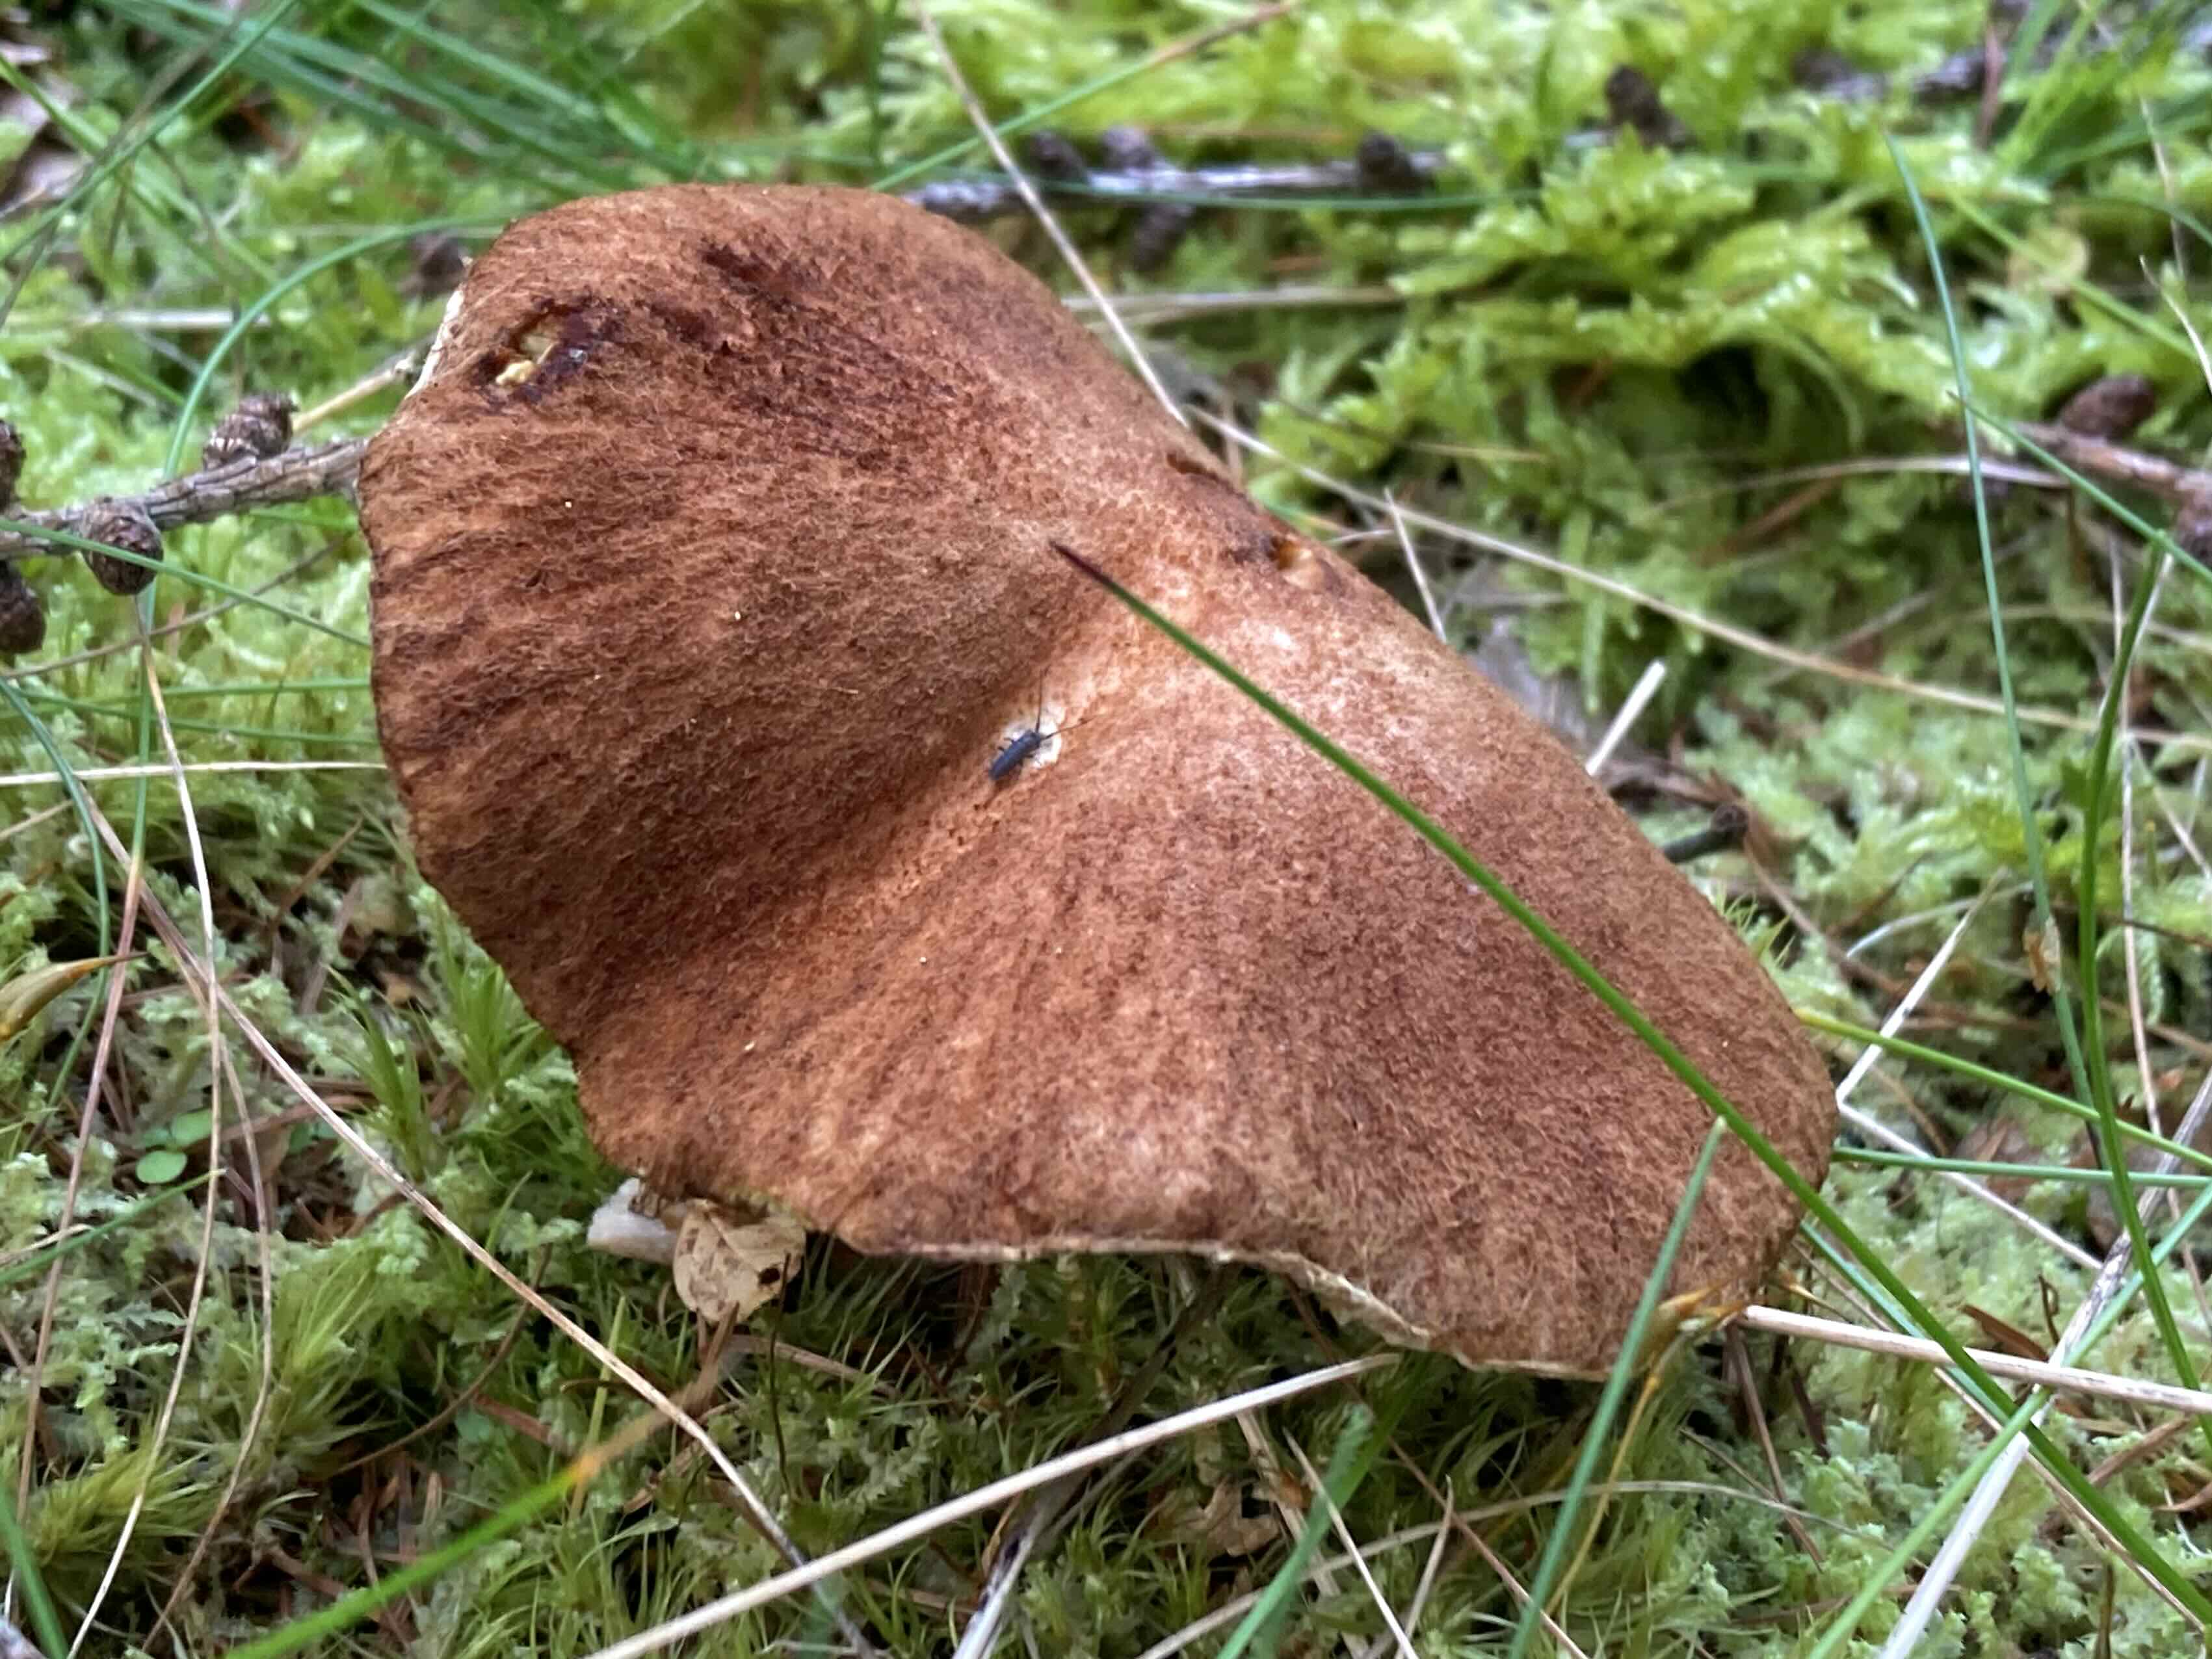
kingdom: Fungi
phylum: Basidiomycota
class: Agaricomycetes
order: Boletales
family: Suillaceae
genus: Suillus
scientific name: Suillus cavipes
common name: hulstokket slimrørhat
